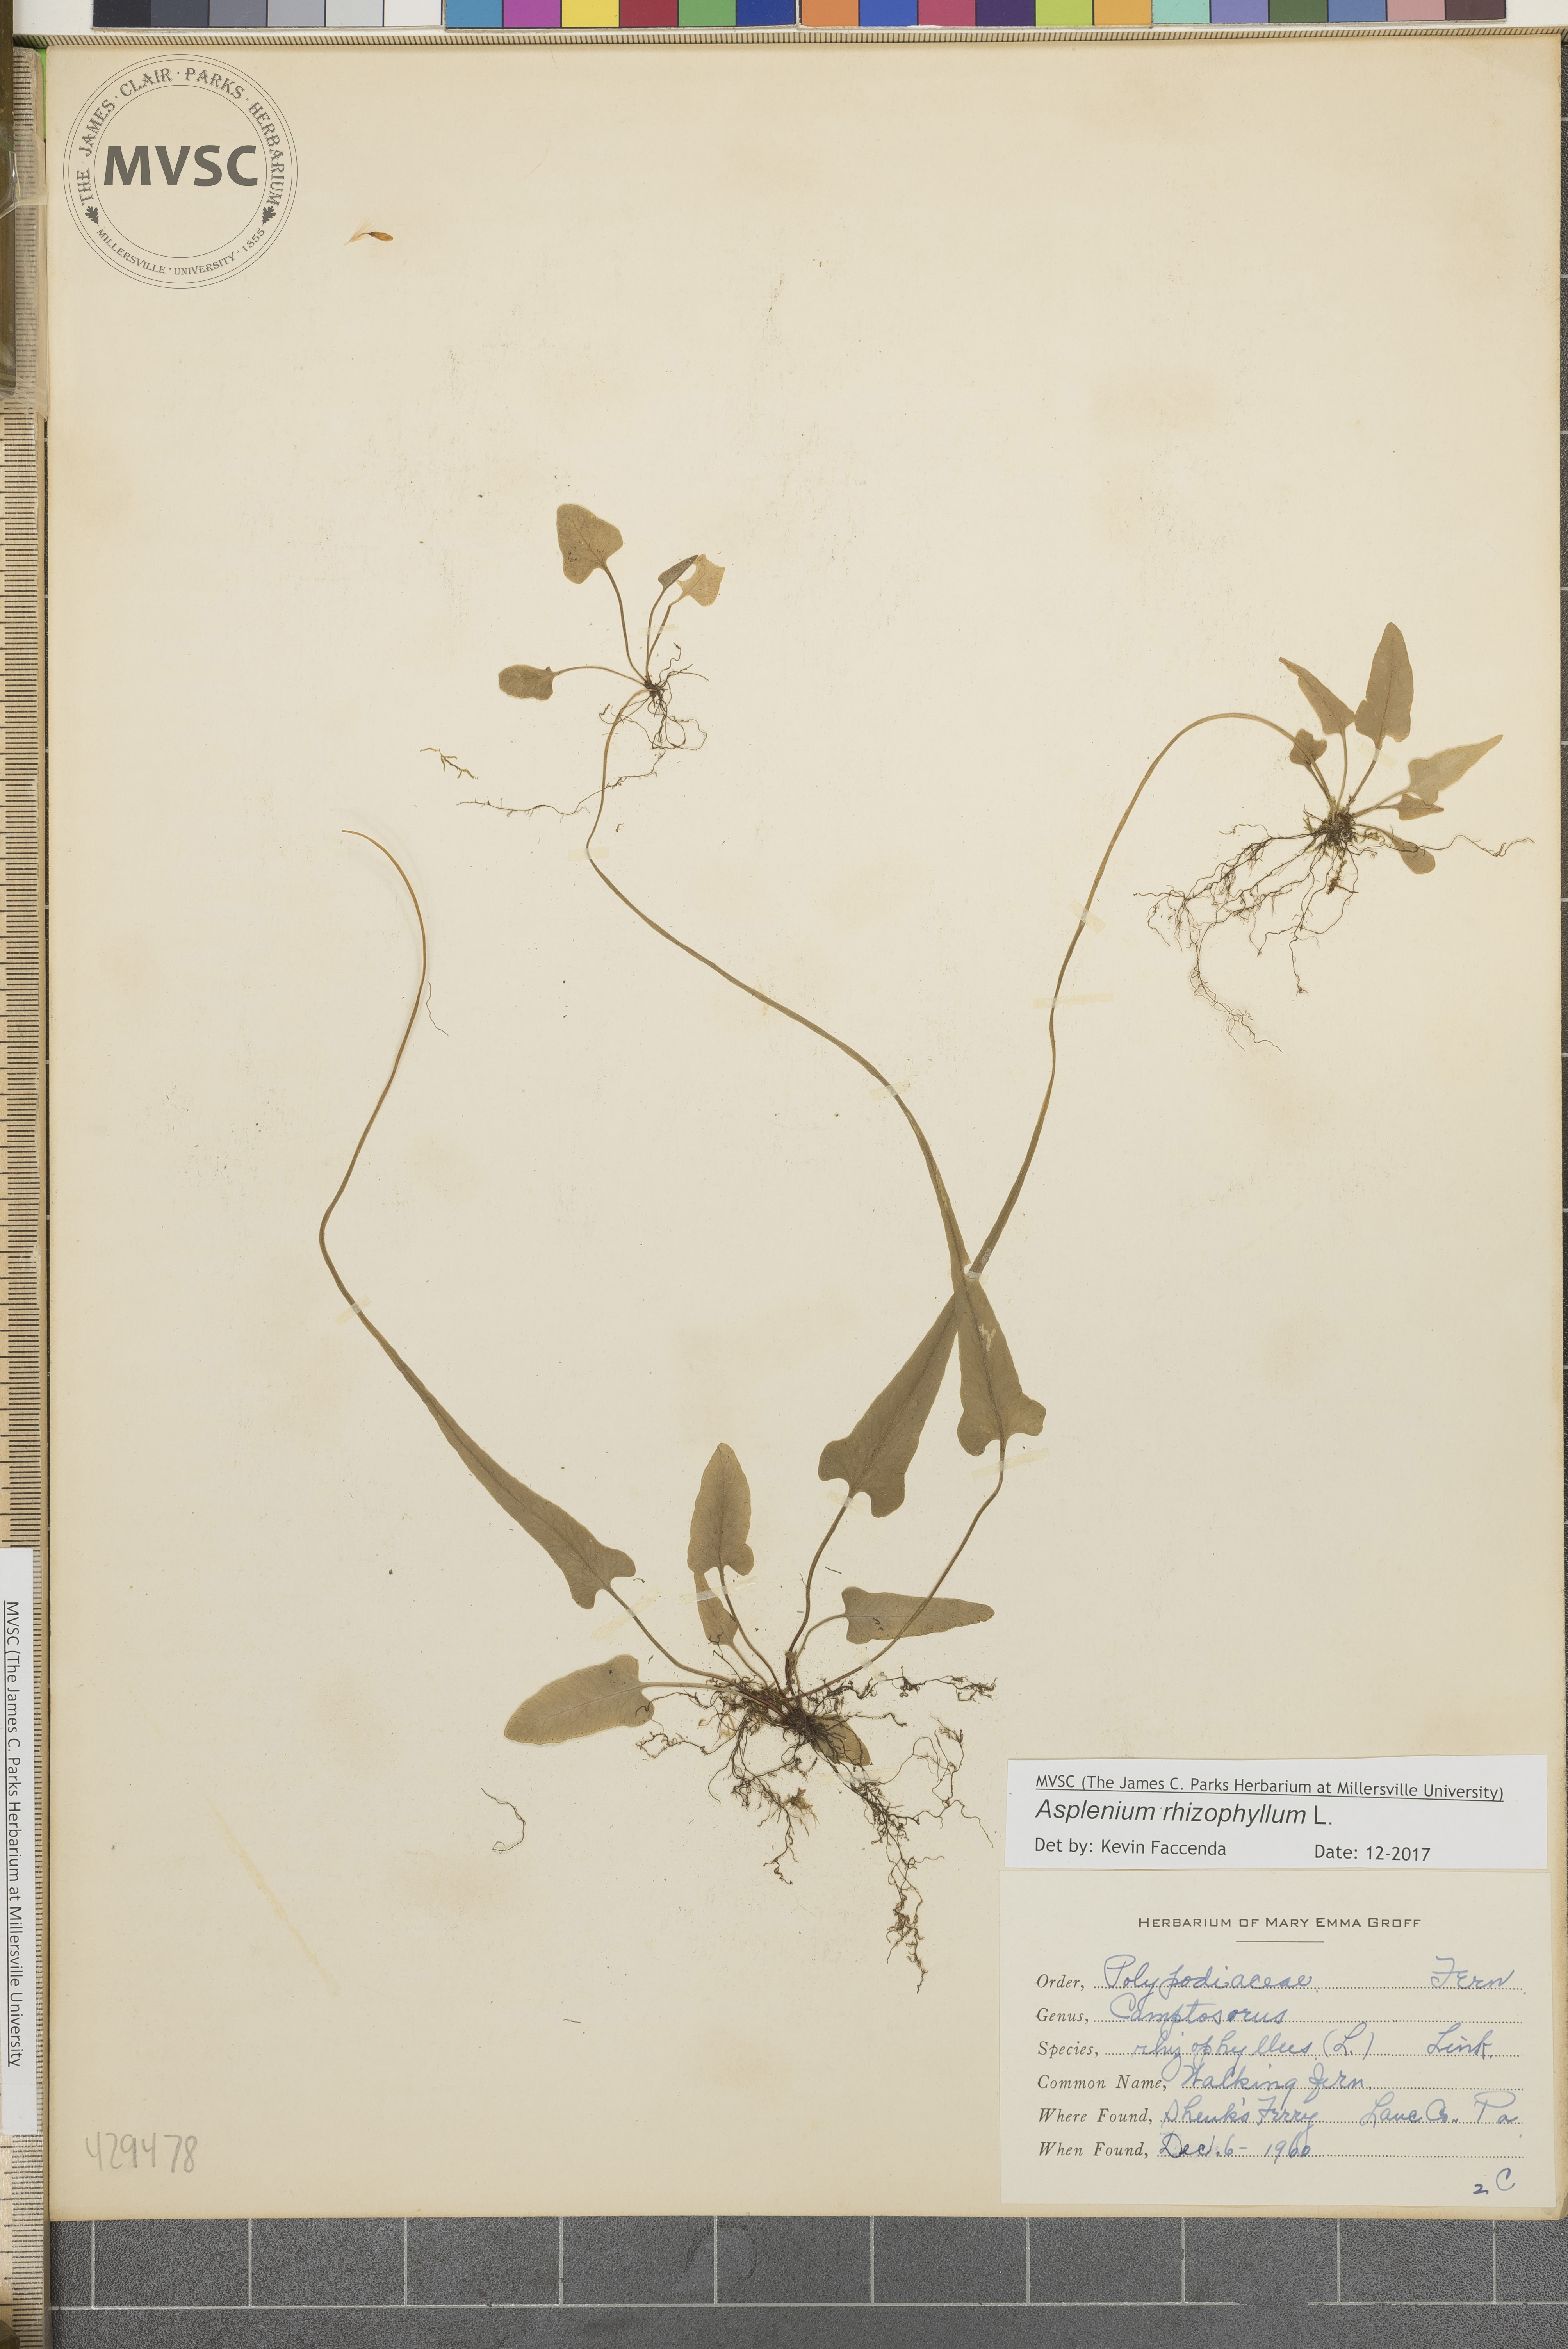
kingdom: Plantae
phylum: Tracheophyta
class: Polypodiopsida
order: Polypodiales
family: Aspleniaceae
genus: Asplenium
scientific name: Asplenium rhizophyllum
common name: Walking fern
